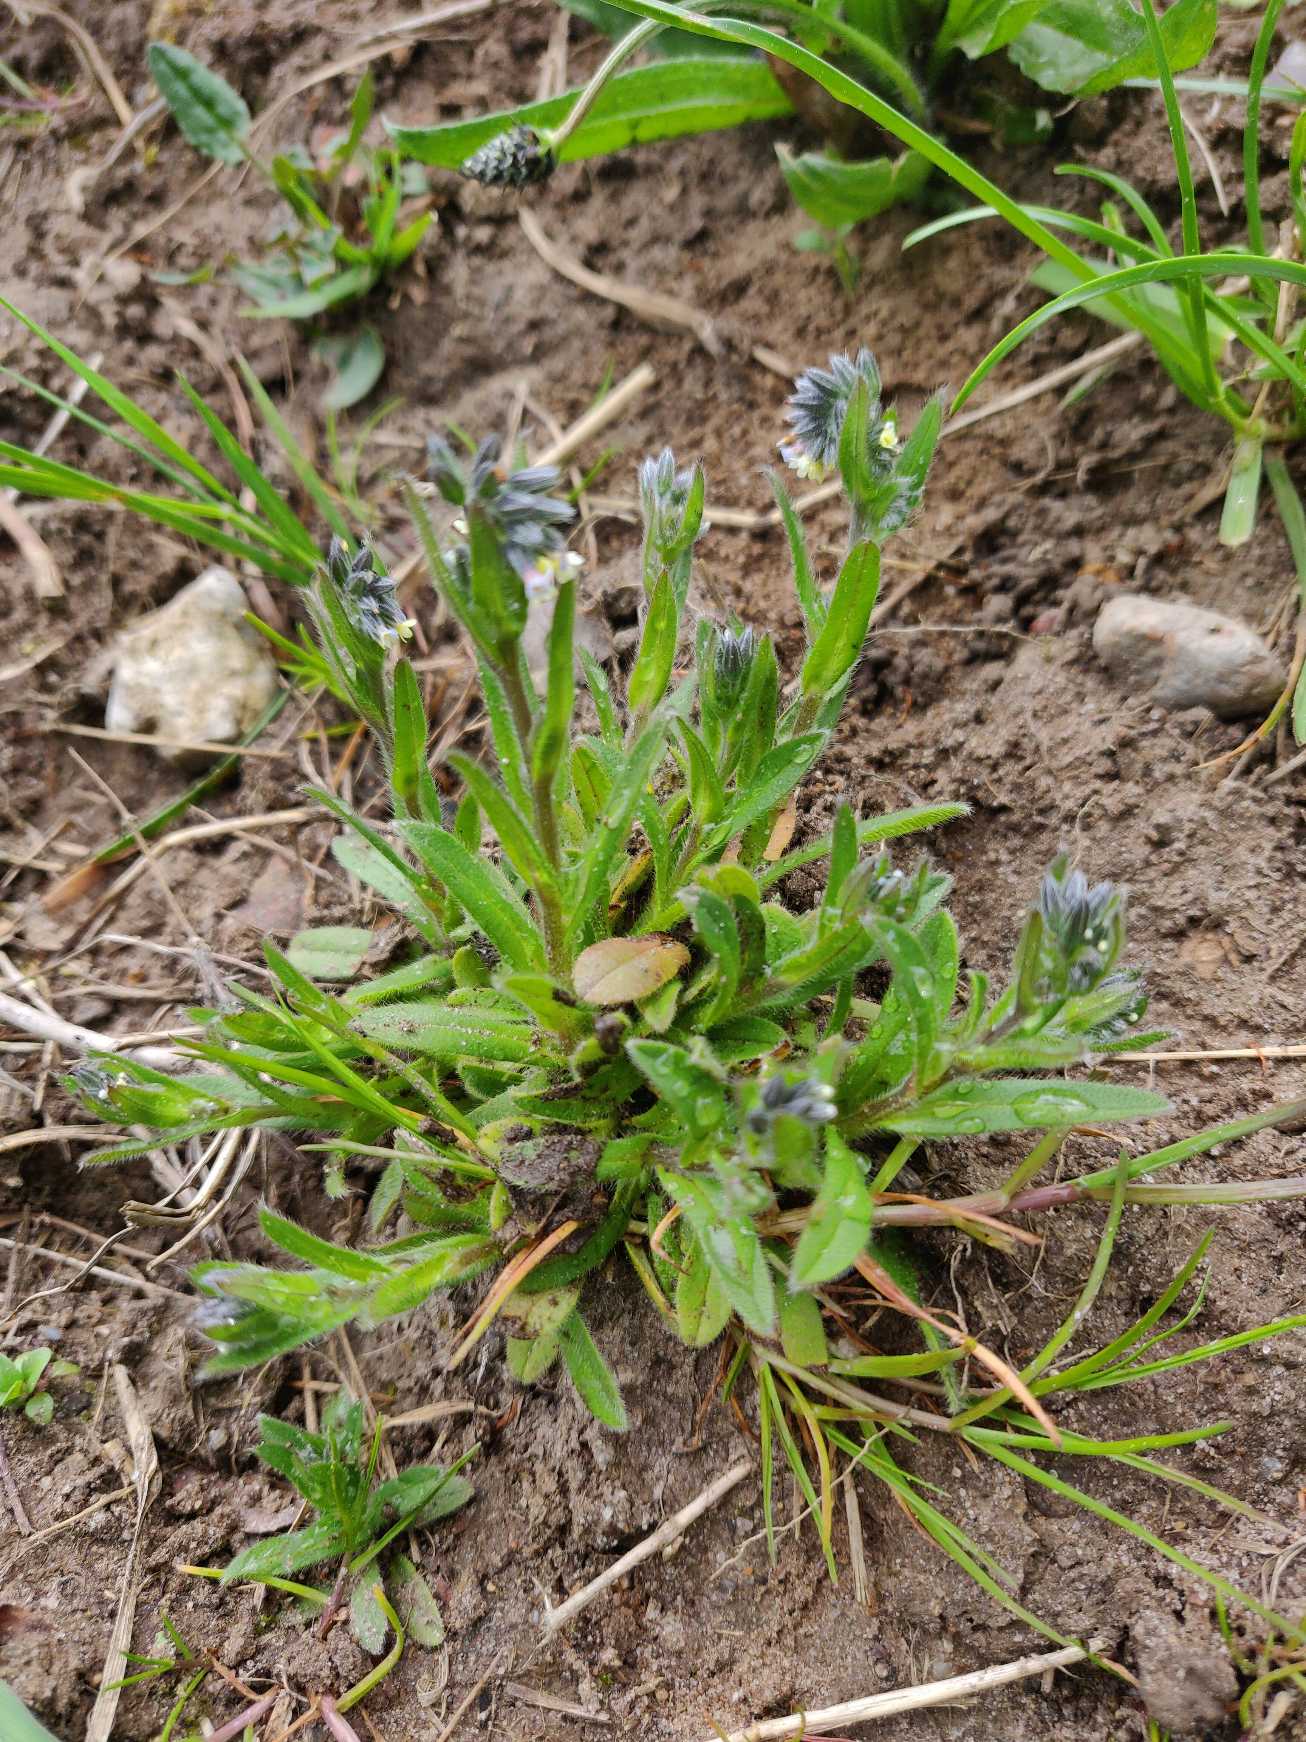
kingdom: Plantae
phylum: Tracheophyta
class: Magnoliopsida
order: Boraginales
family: Boraginaceae
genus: Myosotis
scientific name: Myosotis discolor
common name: Forskelligfarvet forglemmigej
